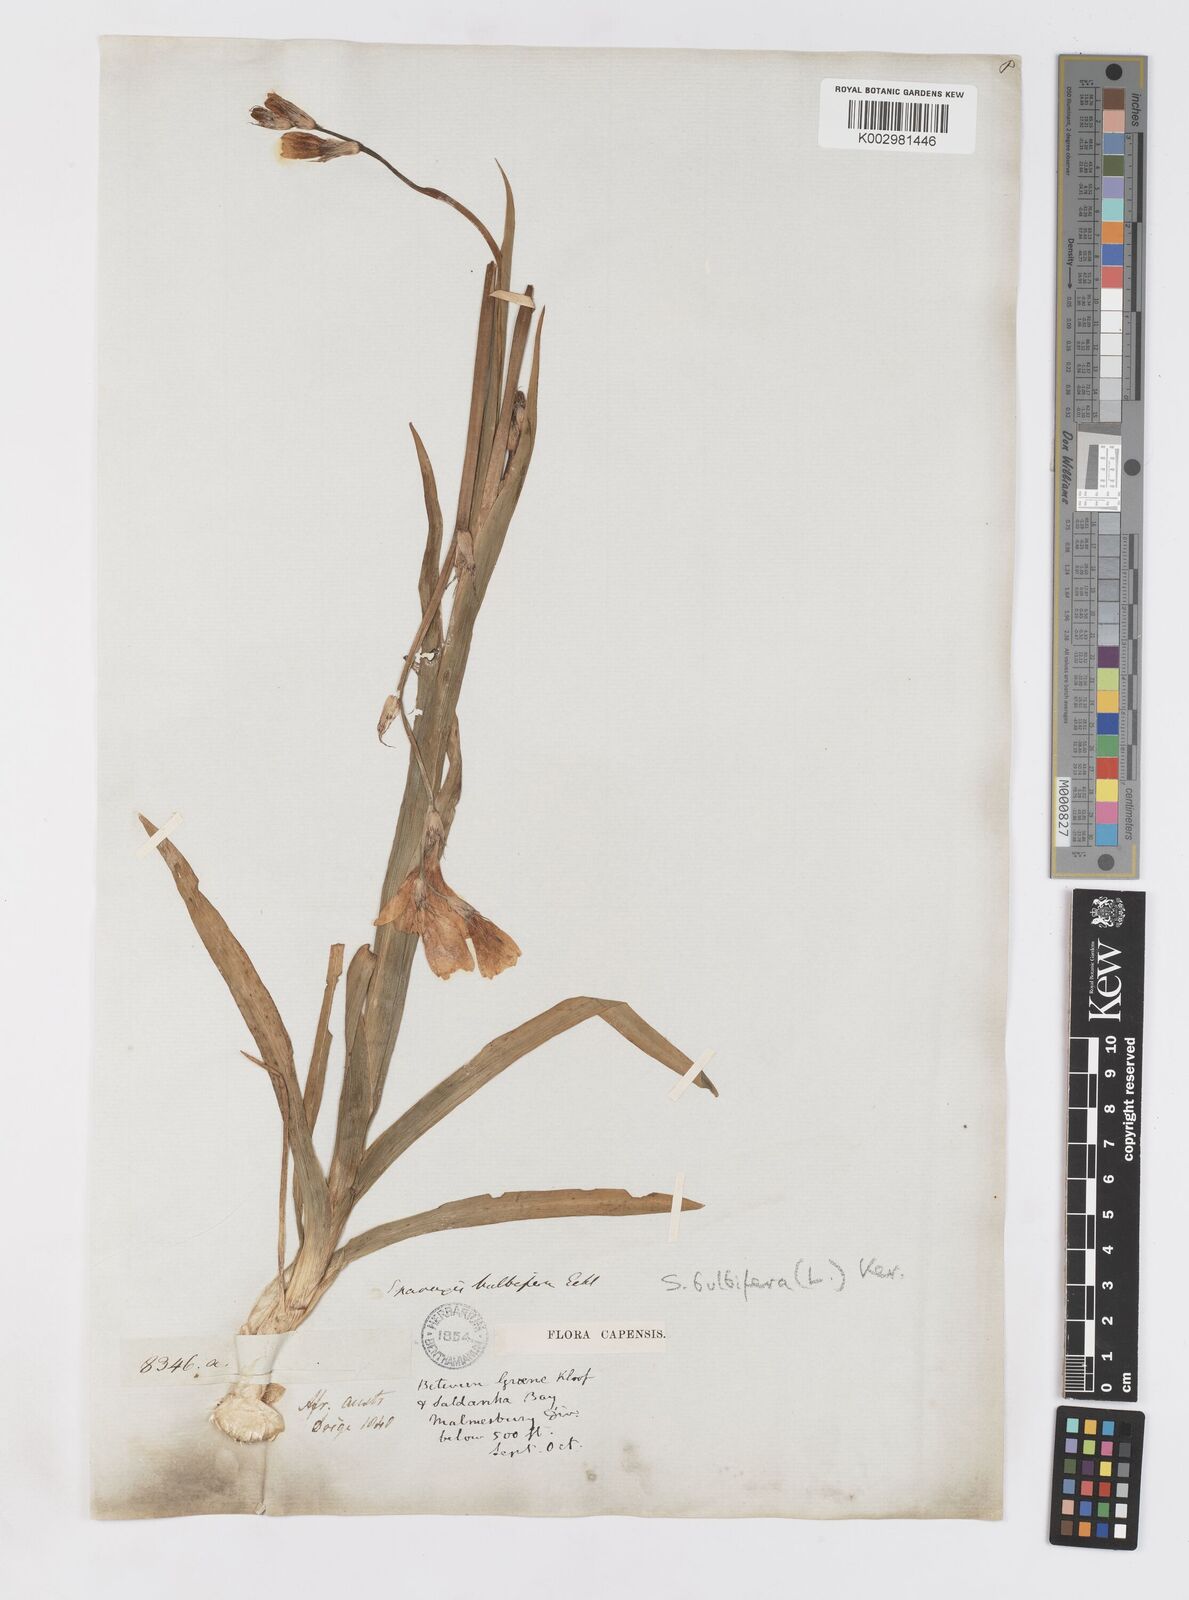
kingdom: Plantae
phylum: Tracheophyta
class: Liliopsida
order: Asparagales
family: Iridaceae
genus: Sparaxis
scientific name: Sparaxis bulbifera
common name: Harlequin-flower
